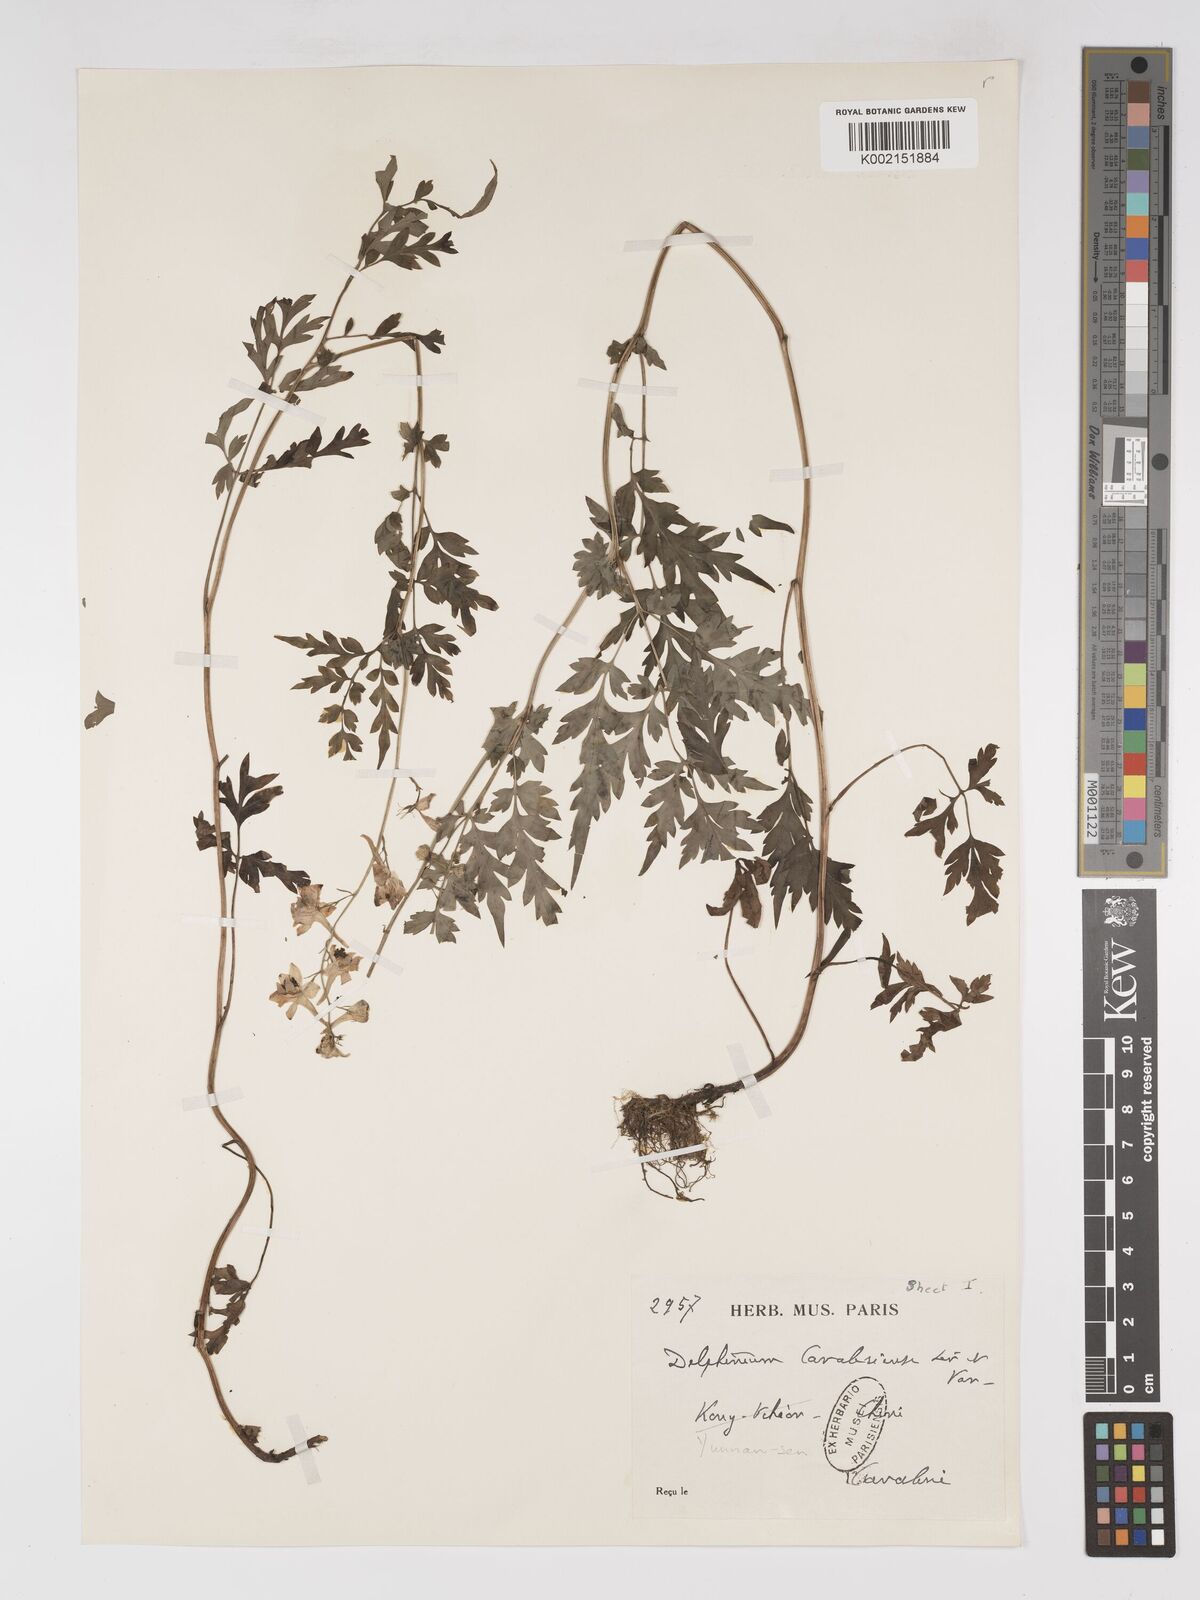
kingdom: Plantae
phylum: Tracheophyta
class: Magnoliopsida
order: Ranunculales
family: Ranunculaceae
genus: Delphinium
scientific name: Delphinium anthriscifolium
